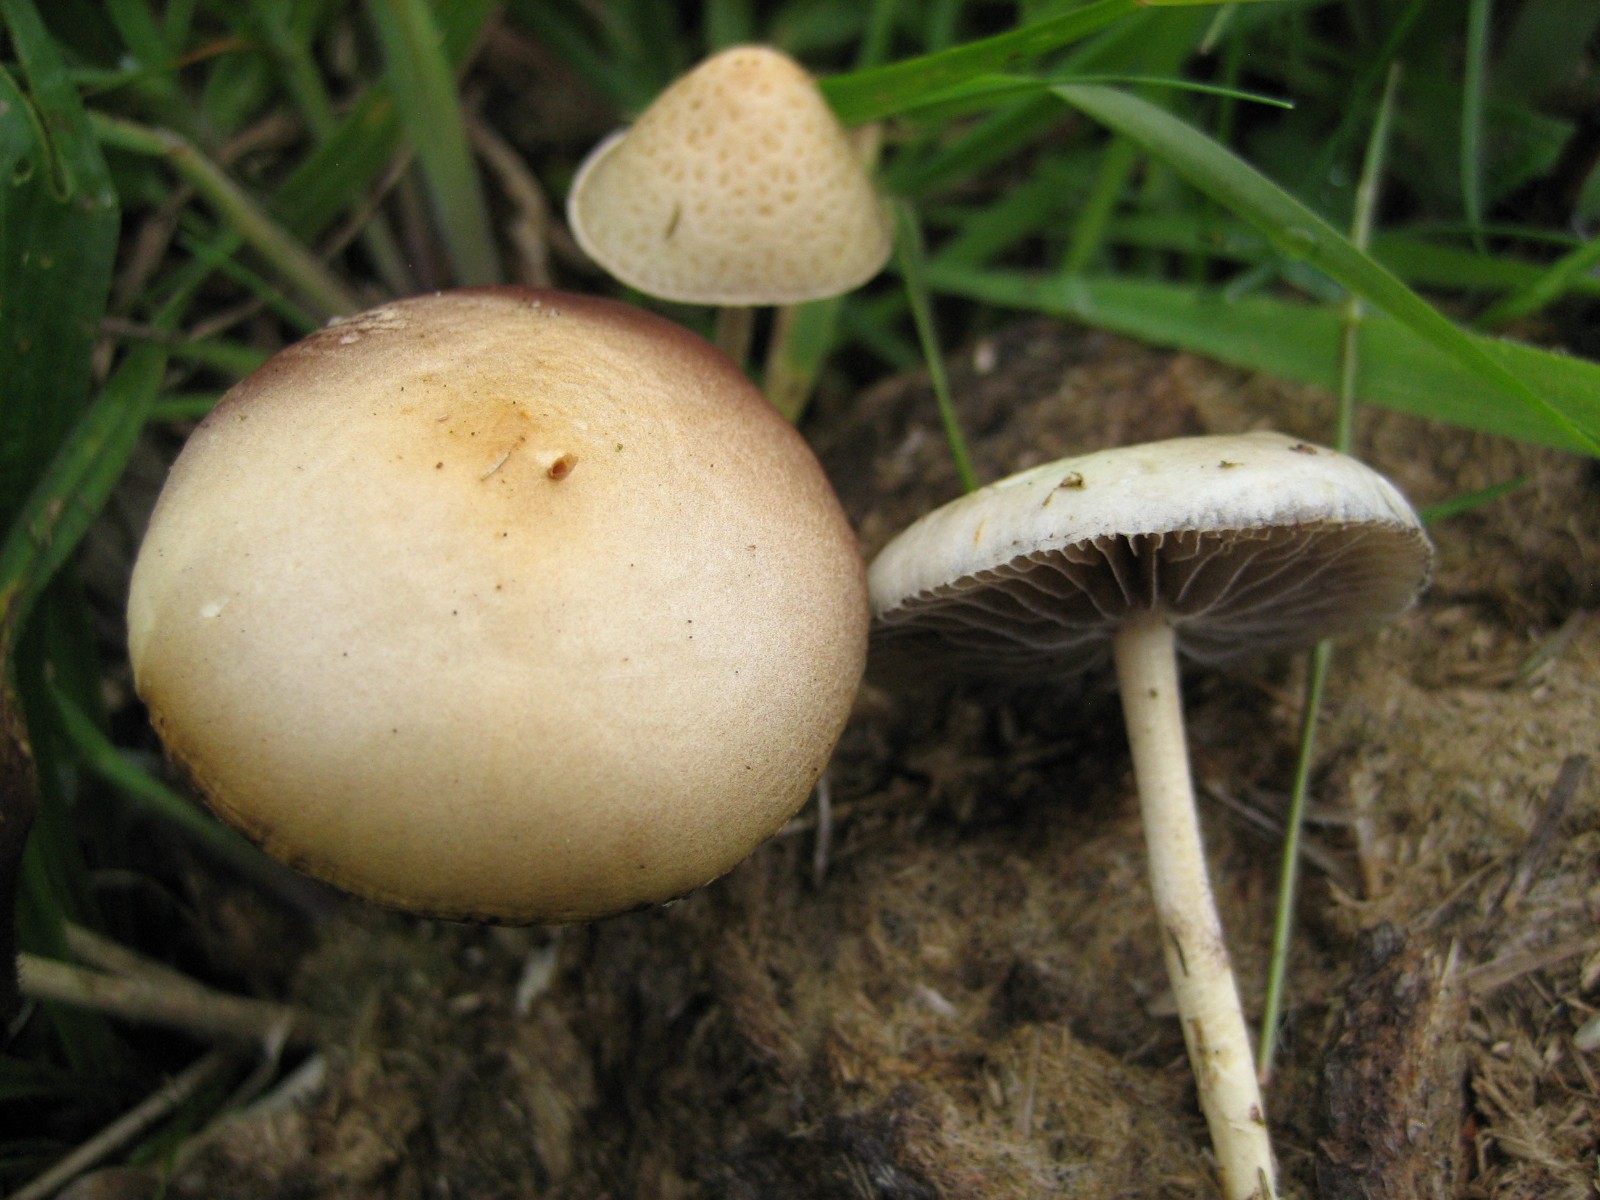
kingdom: Fungi
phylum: Basidiomycota
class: Agaricomycetes
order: Agaricales
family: Strophariaceae
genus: Protostropharia
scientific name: Protostropharia semiglobata
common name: halvkugleformet bredblad
